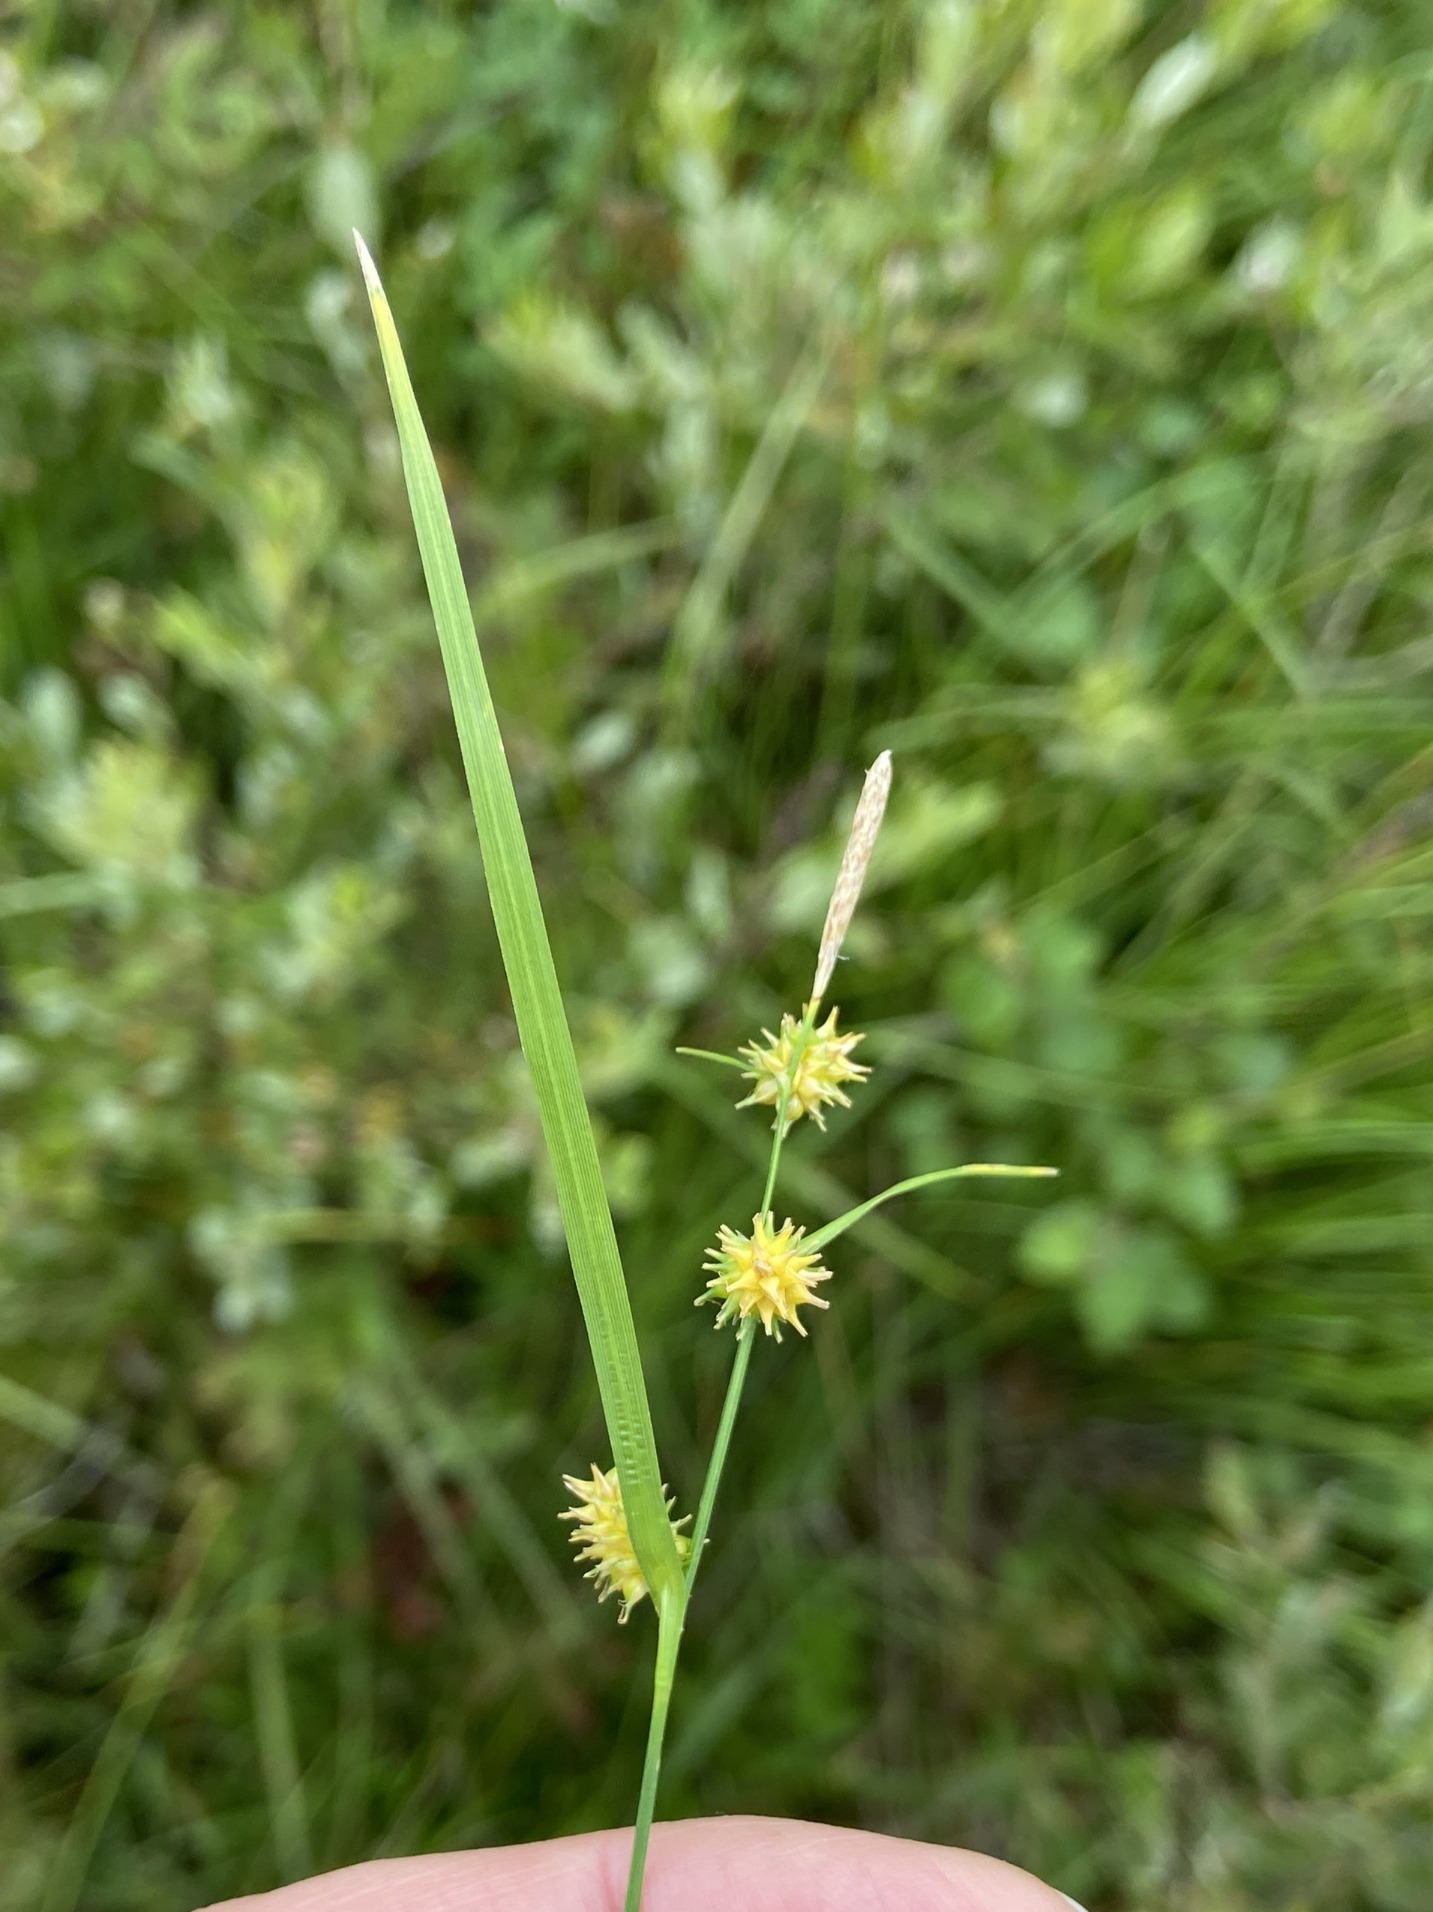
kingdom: Plantae
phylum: Tracheophyta
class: Liliopsida
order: Poales
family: Cyperaceae
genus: Carex
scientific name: Carex lepidocarpa
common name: Krognæb-star
